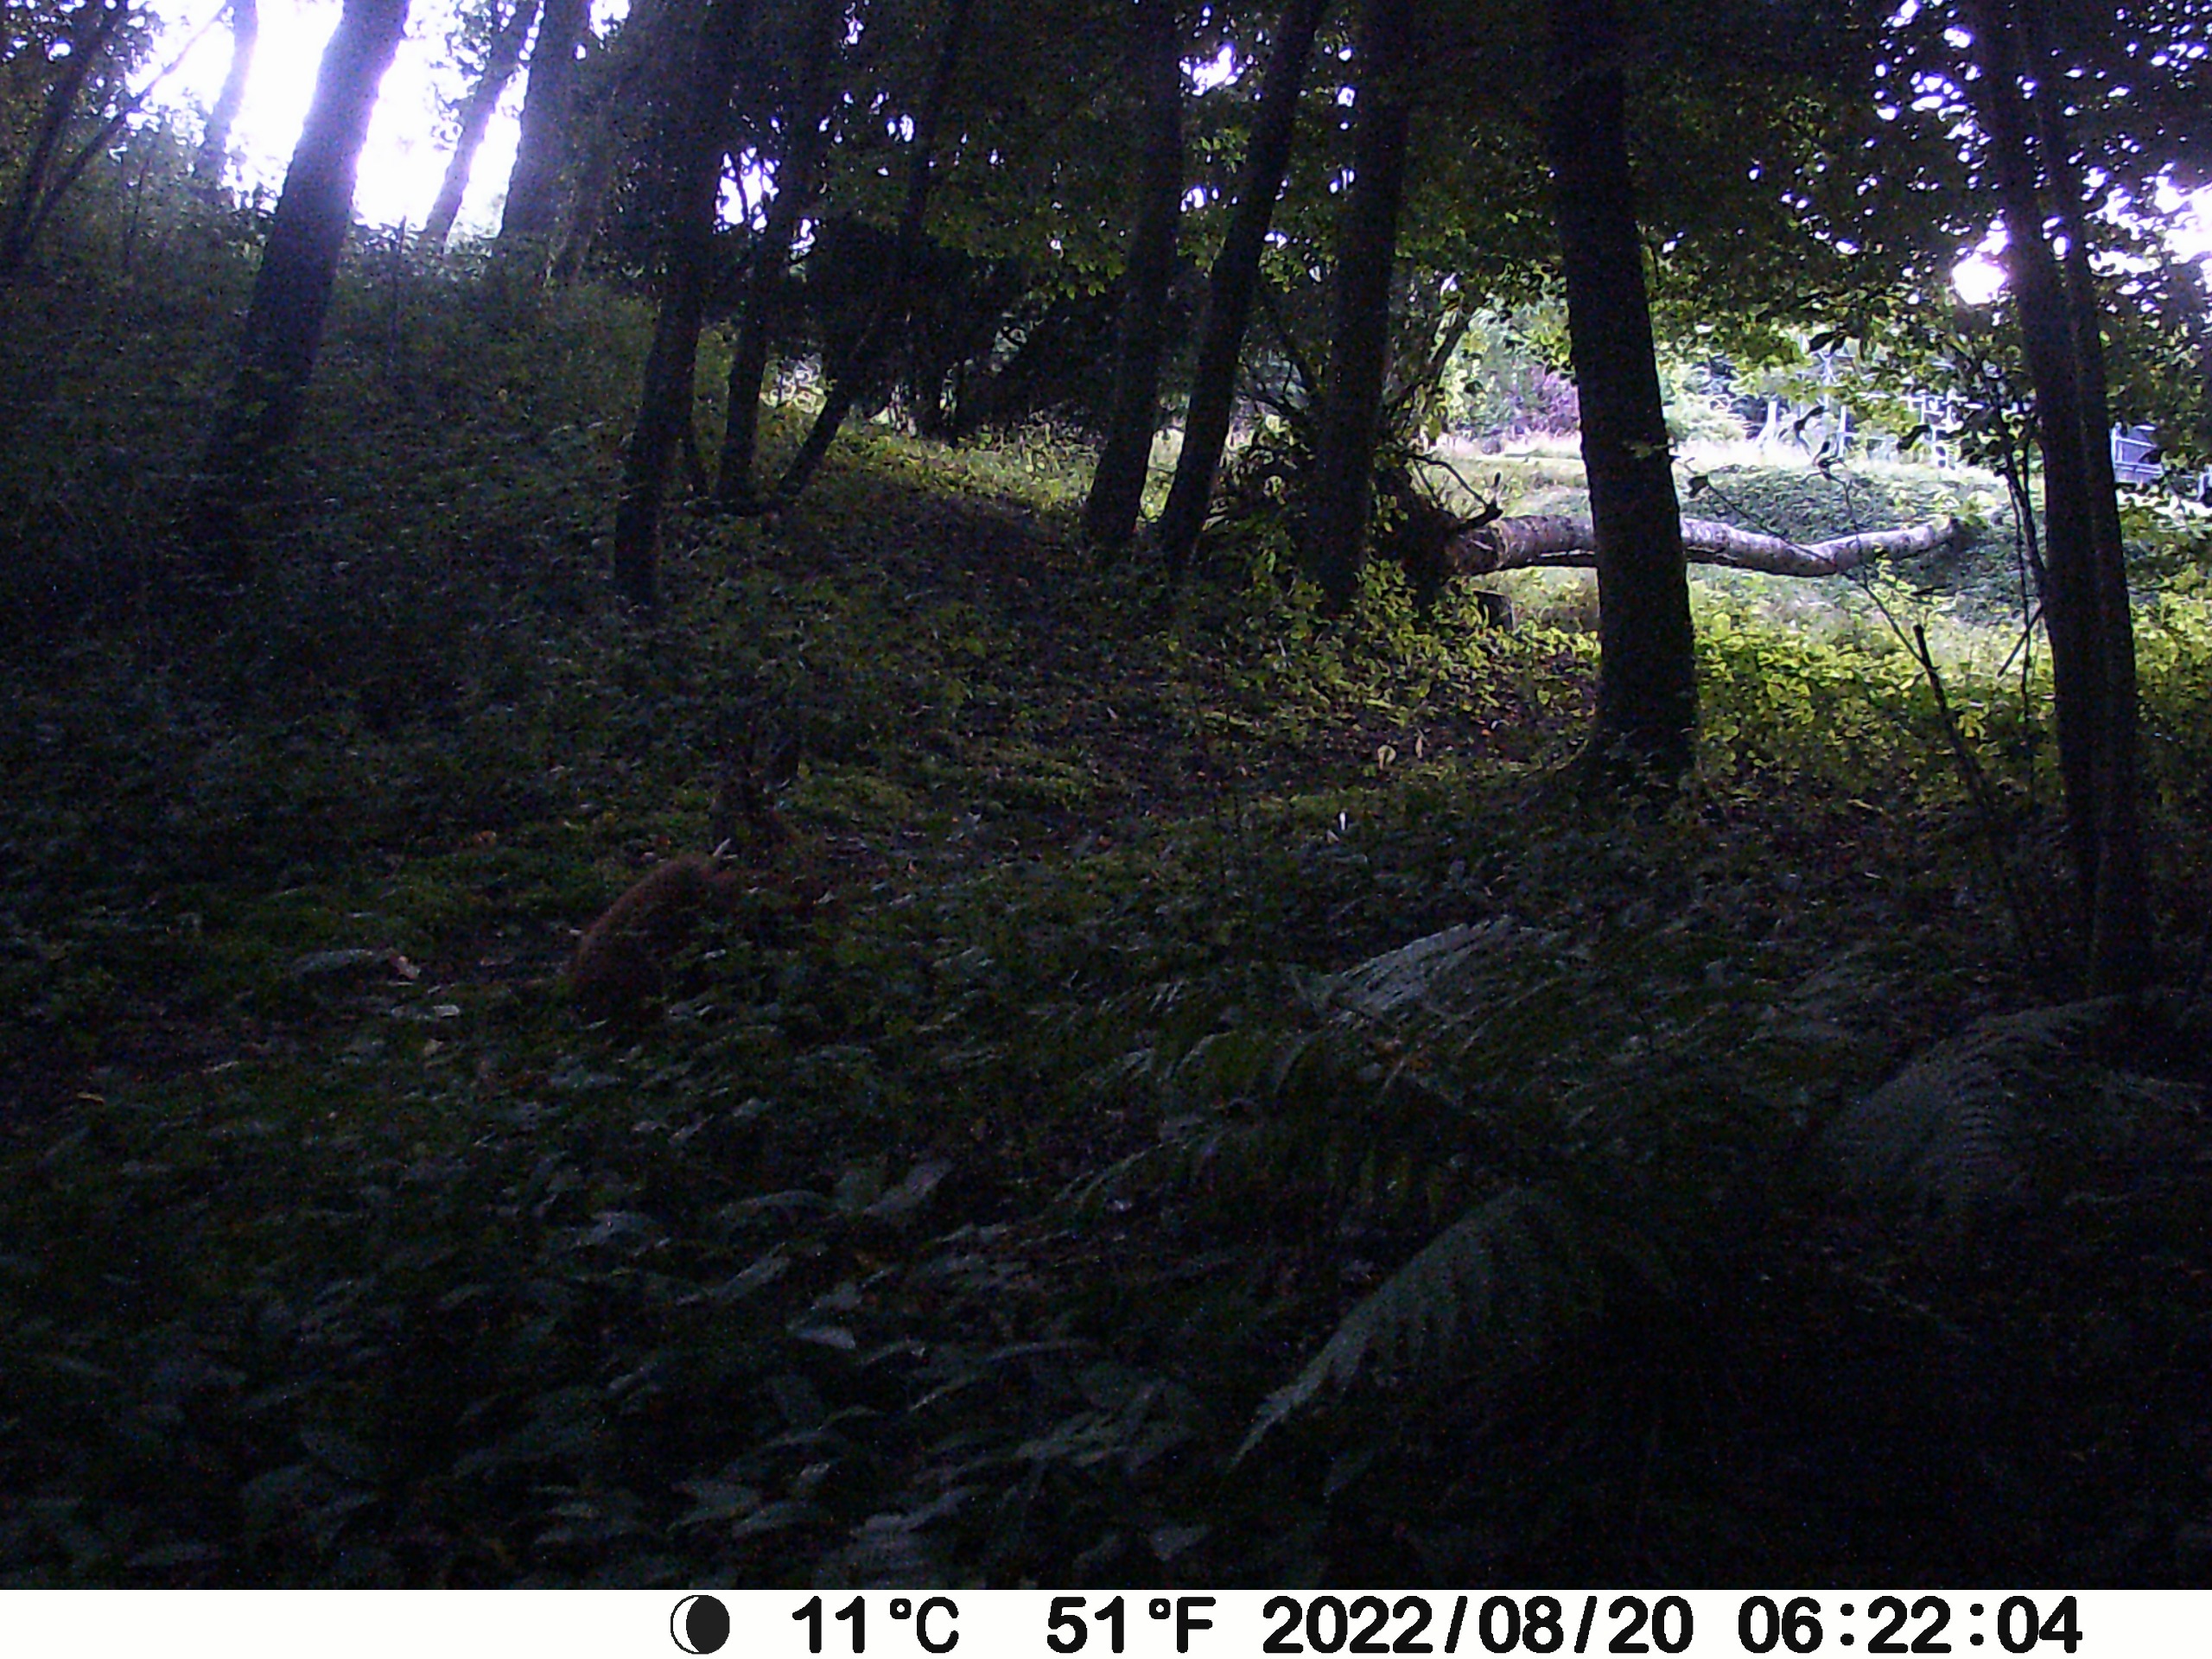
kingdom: Animalia
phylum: Chordata
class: Mammalia
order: Artiodactyla
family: Cervidae
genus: Capreolus
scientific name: Capreolus capreolus
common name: Rådyr
